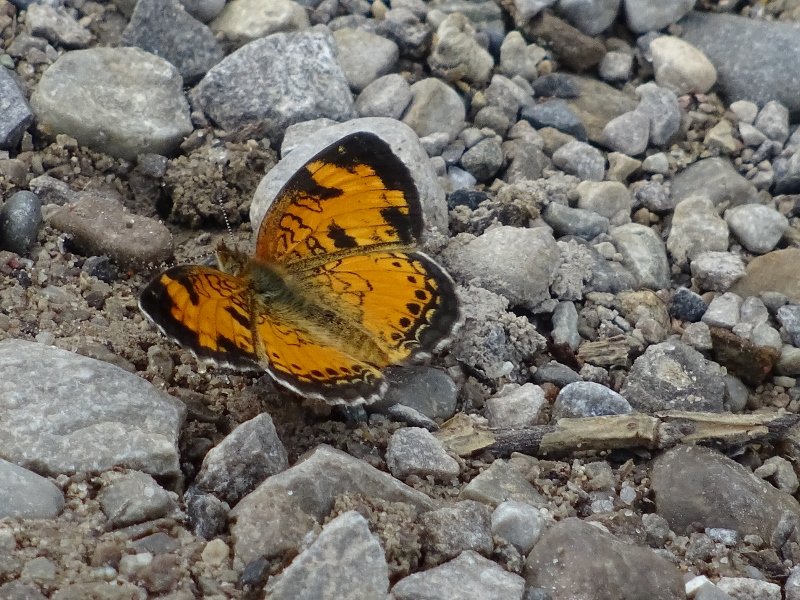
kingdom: Animalia
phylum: Arthropoda
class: Insecta
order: Lepidoptera
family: Nymphalidae
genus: Phyciodes
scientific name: Phyciodes tharos
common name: Pearl Crescent
